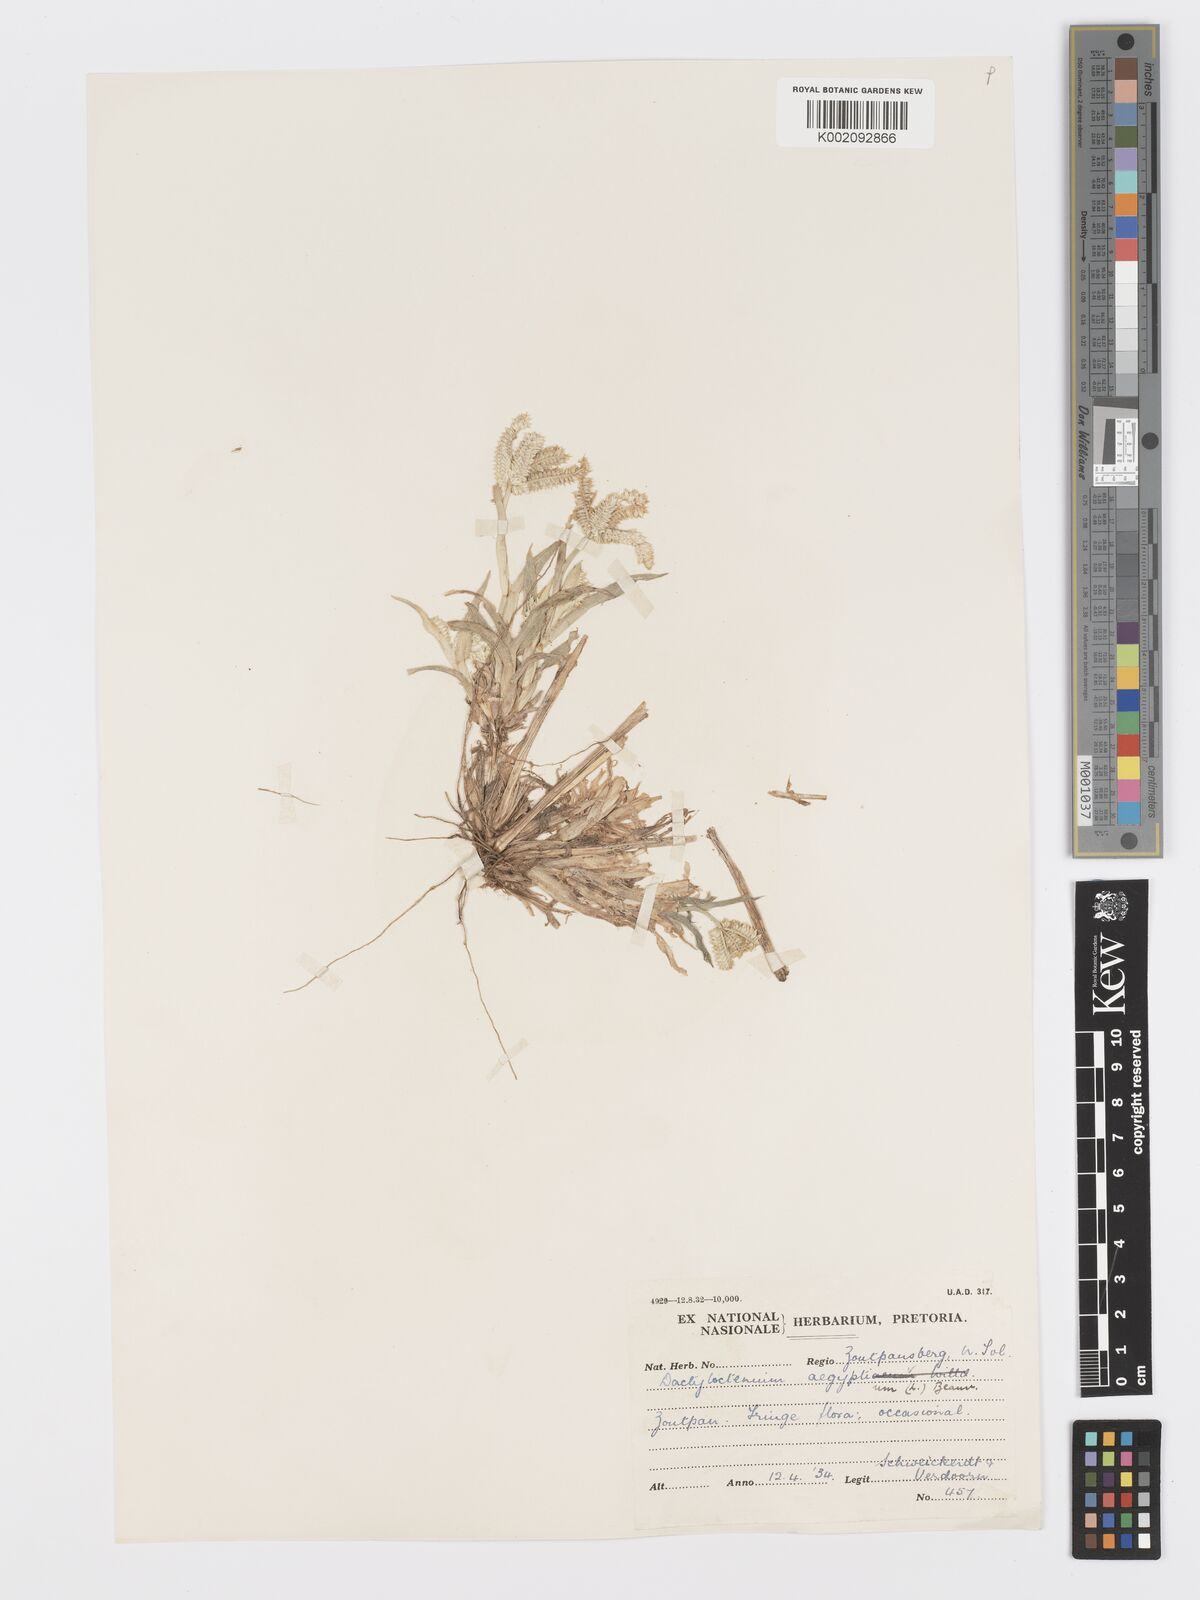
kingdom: Plantae
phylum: Tracheophyta
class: Liliopsida
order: Poales
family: Poaceae
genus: Dactyloctenium
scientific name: Dactyloctenium aegyptium
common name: Egyptian grass
